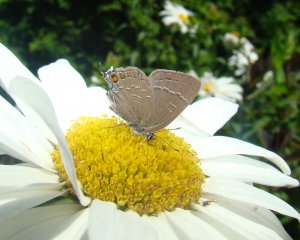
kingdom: Animalia
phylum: Arthropoda
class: Insecta
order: Lepidoptera
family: Lycaenidae
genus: Satyrium
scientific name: Satyrium calanus
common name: Banded Hairstreak
